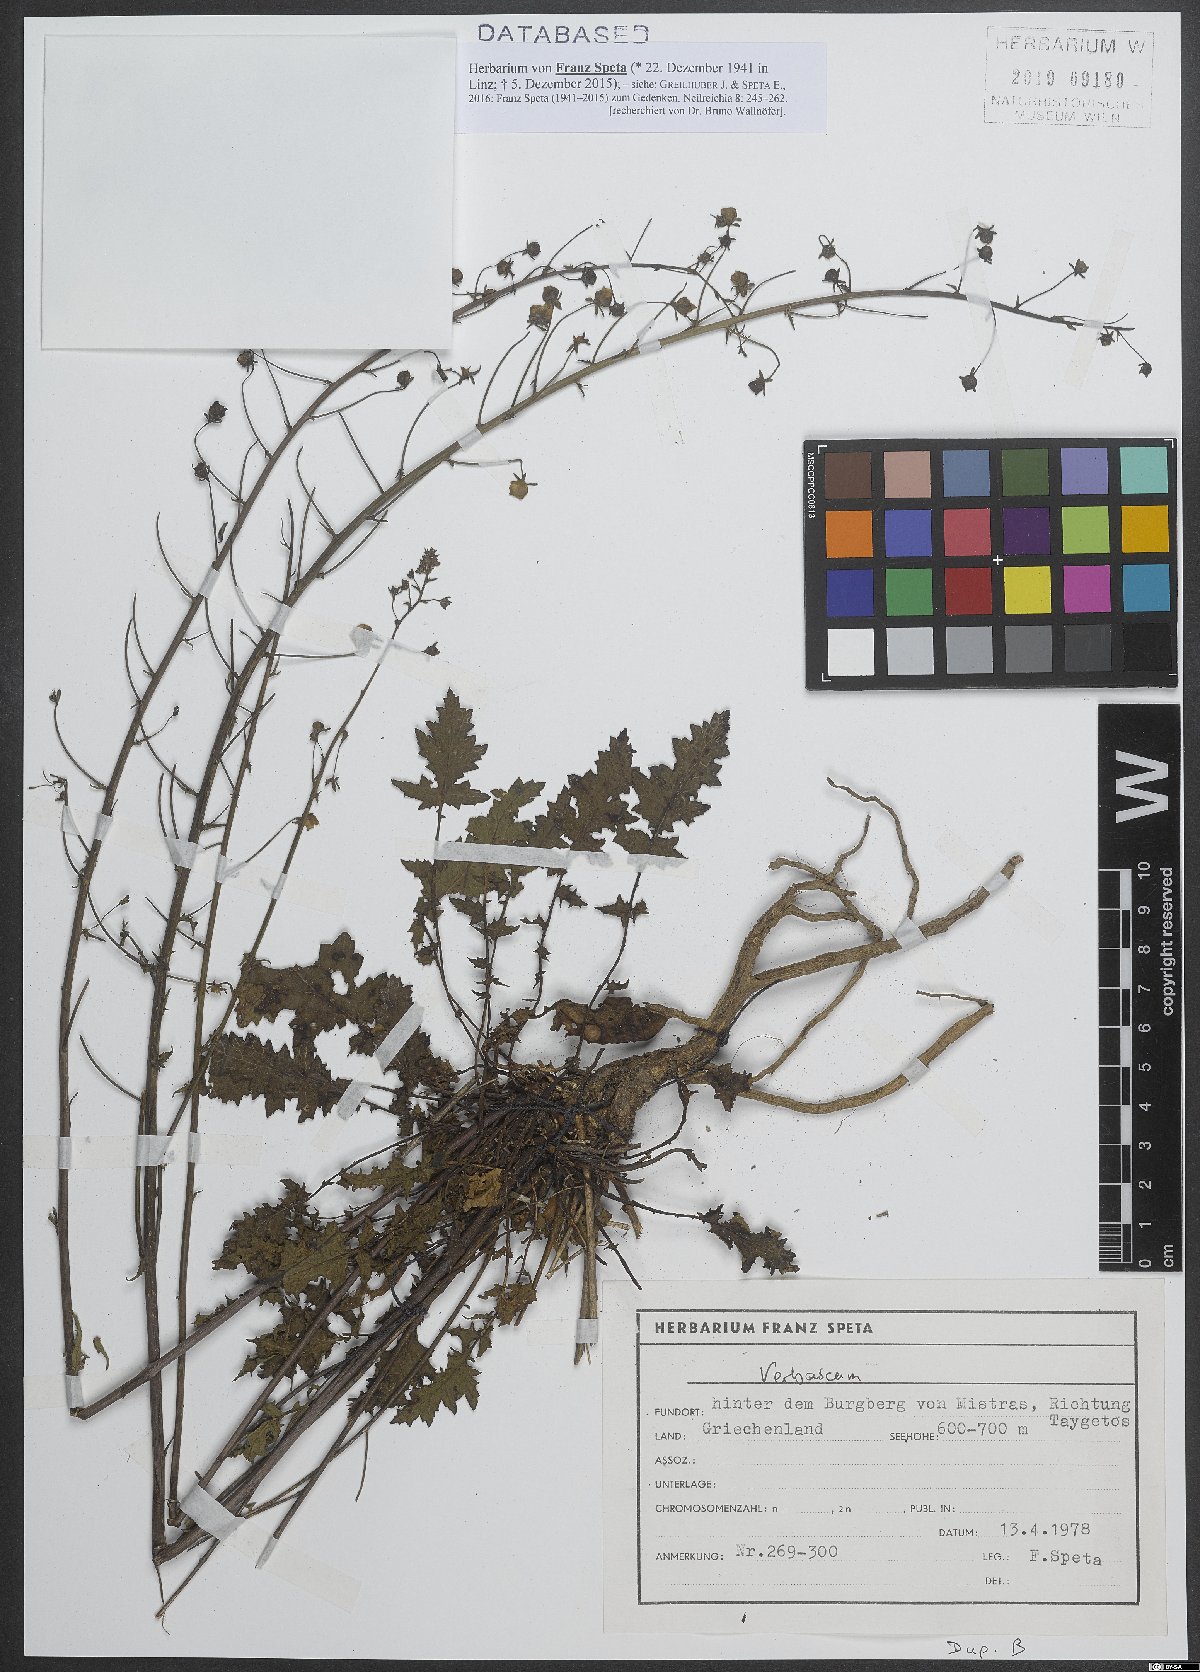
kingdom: Plantae
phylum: Tracheophyta
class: Magnoliopsida
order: Lamiales
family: Scrophulariaceae
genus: Verbascum
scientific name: Verbascum
